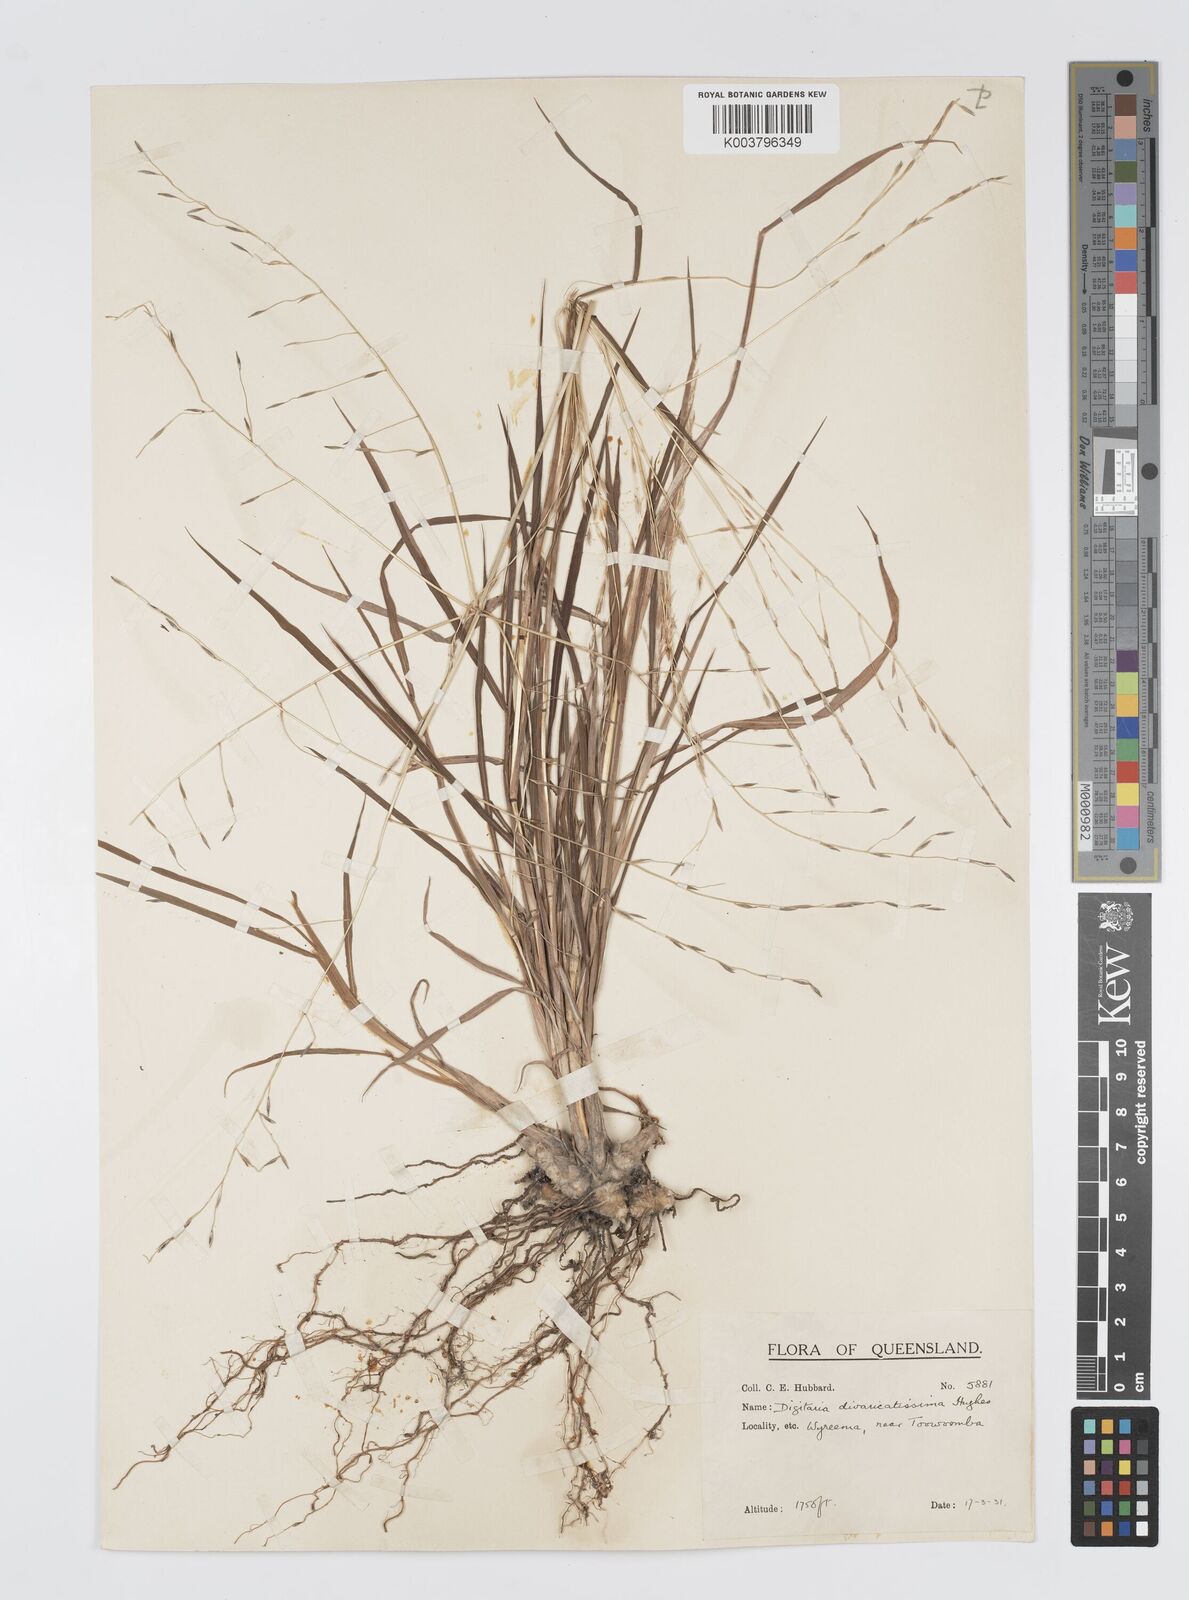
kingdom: Plantae
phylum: Tracheophyta
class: Liliopsida
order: Poales
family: Poaceae
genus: Digitaria
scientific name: Digitaria divaricatissima
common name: Crabgrass
